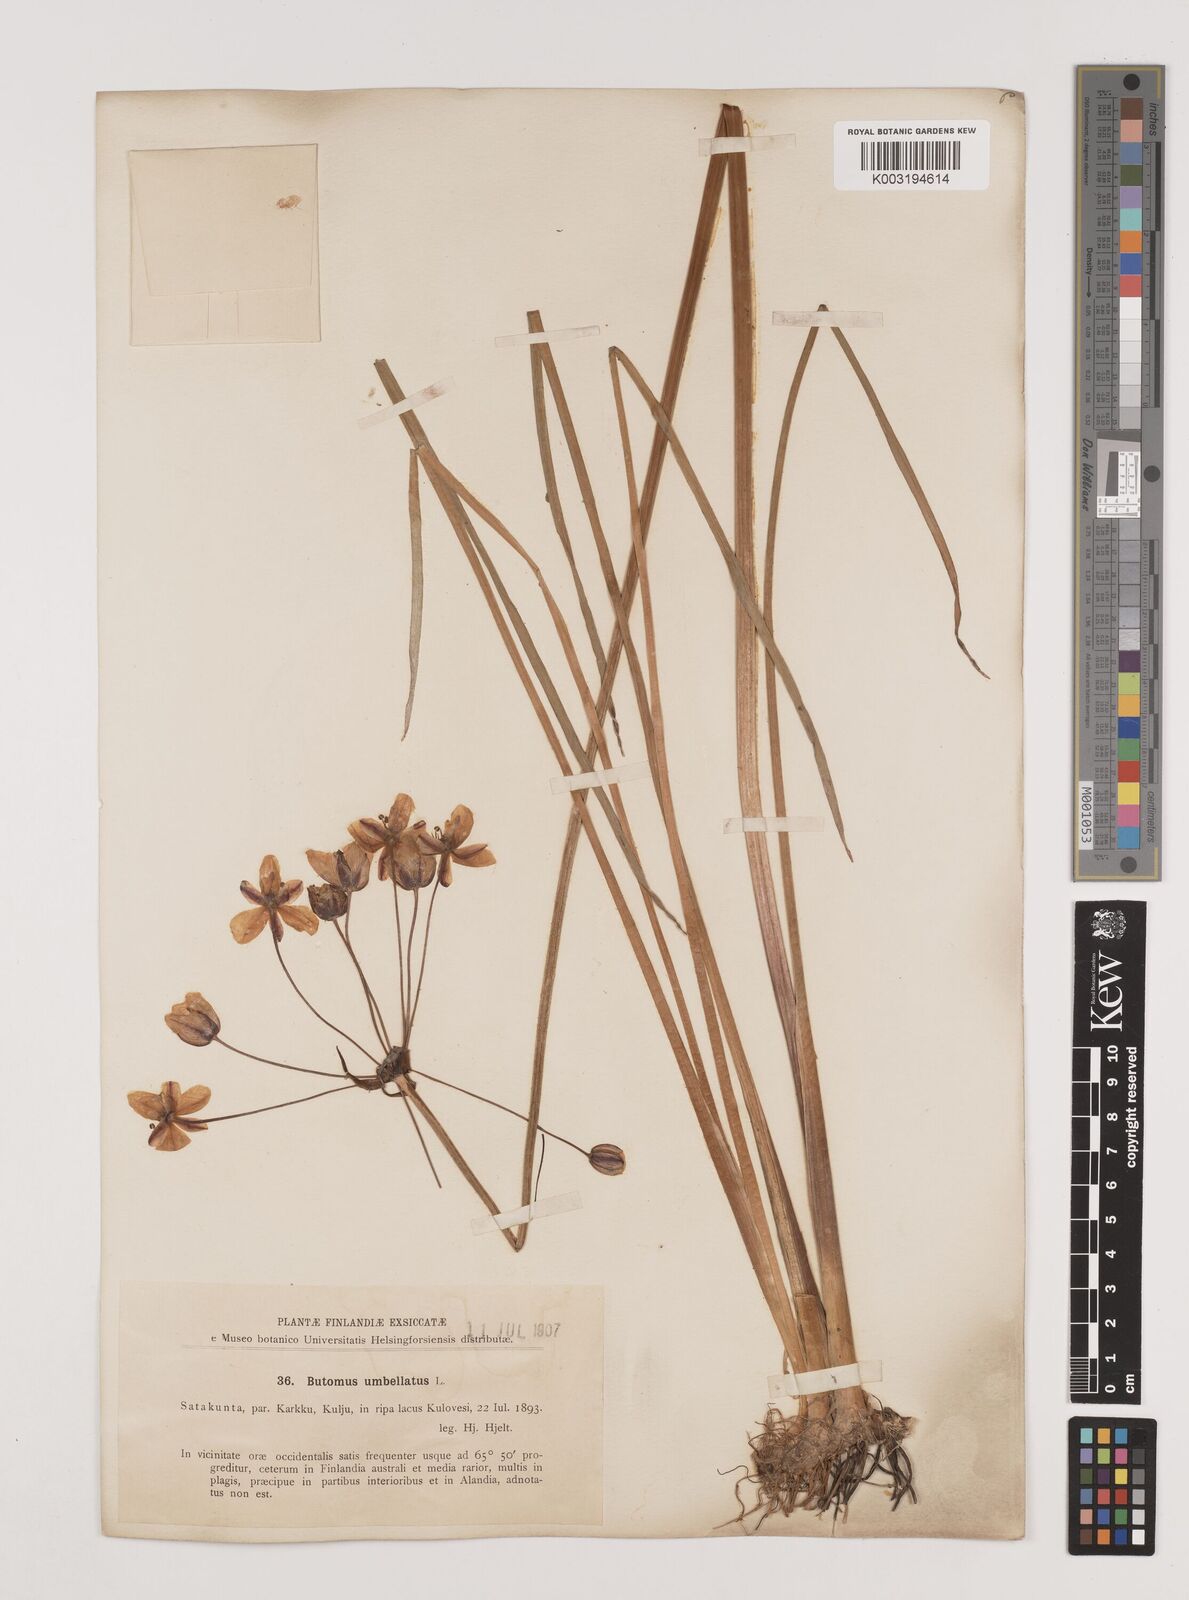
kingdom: Plantae
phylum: Tracheophyta
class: Liliopsida
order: Alismatales
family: Butomaceae
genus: Butomus
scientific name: Butomus umbellatus
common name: Flowering-rush
